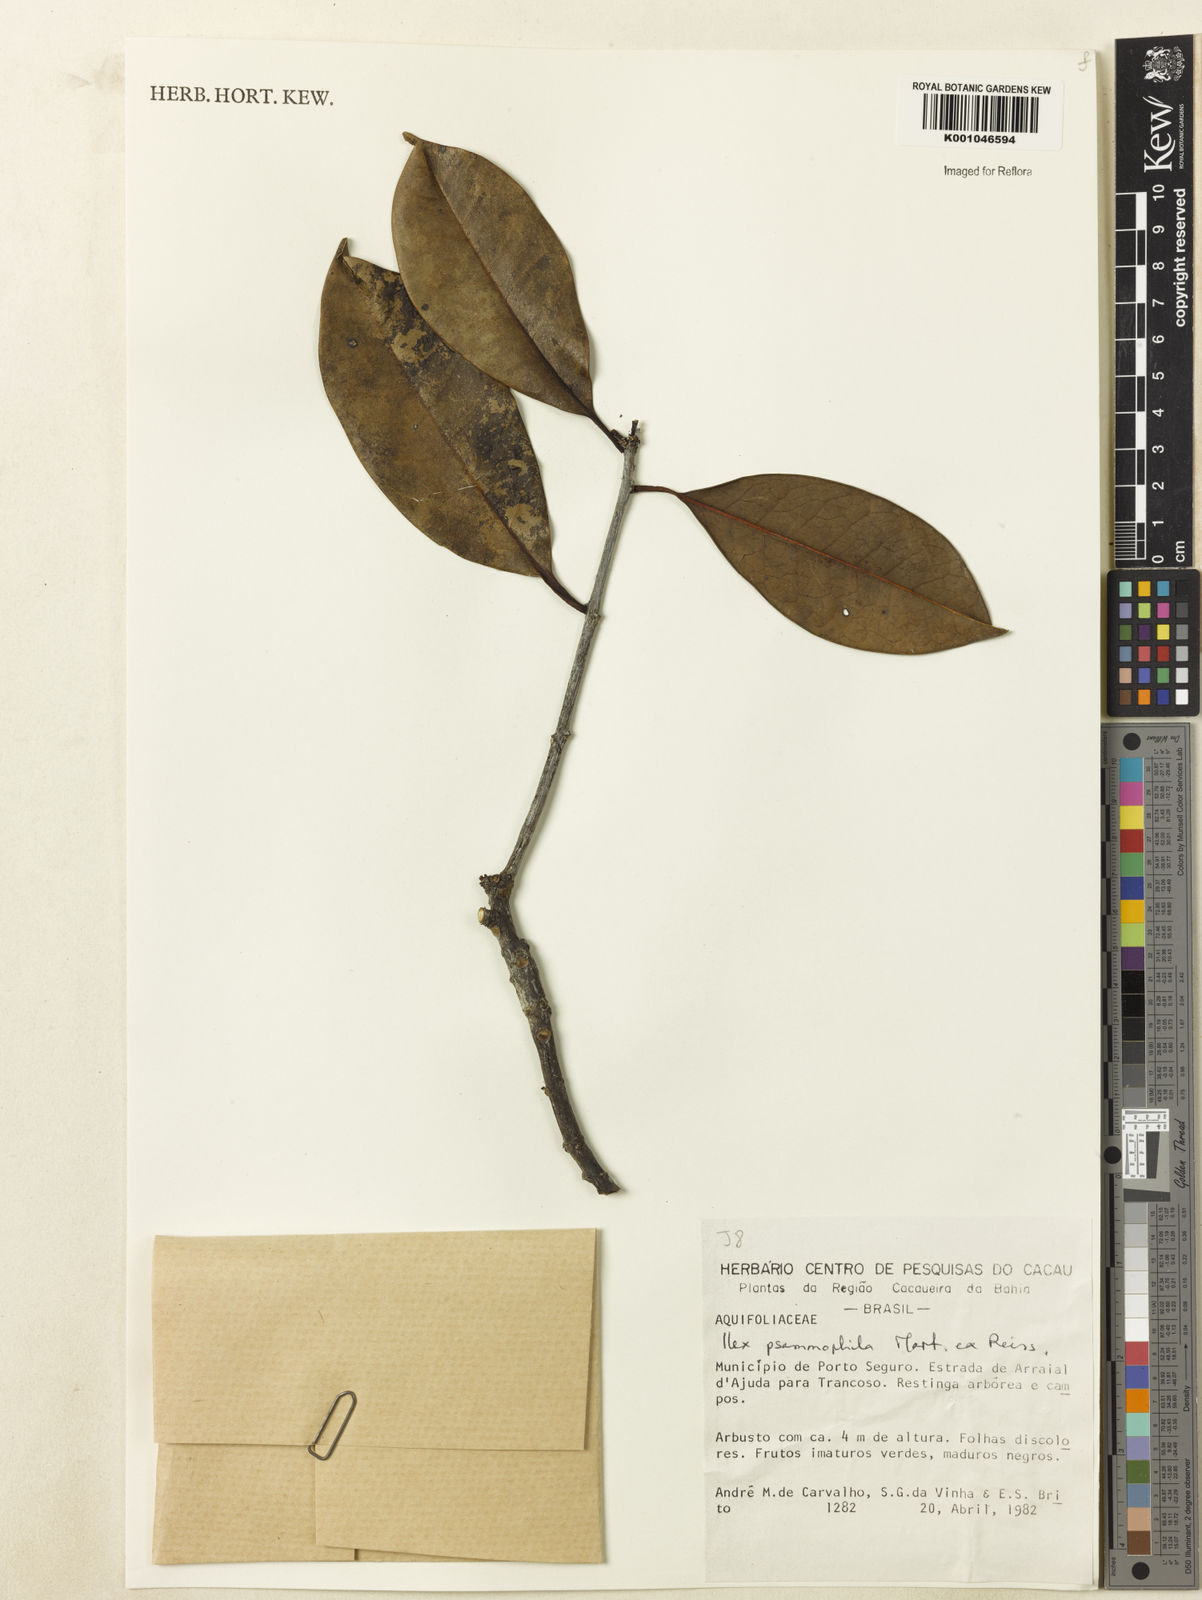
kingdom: Plantae
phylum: Tracheophyta
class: Magnoliopsida
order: Aquifoliales
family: Aquifoliaceae
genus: Ilex
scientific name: Ilex psammophila
